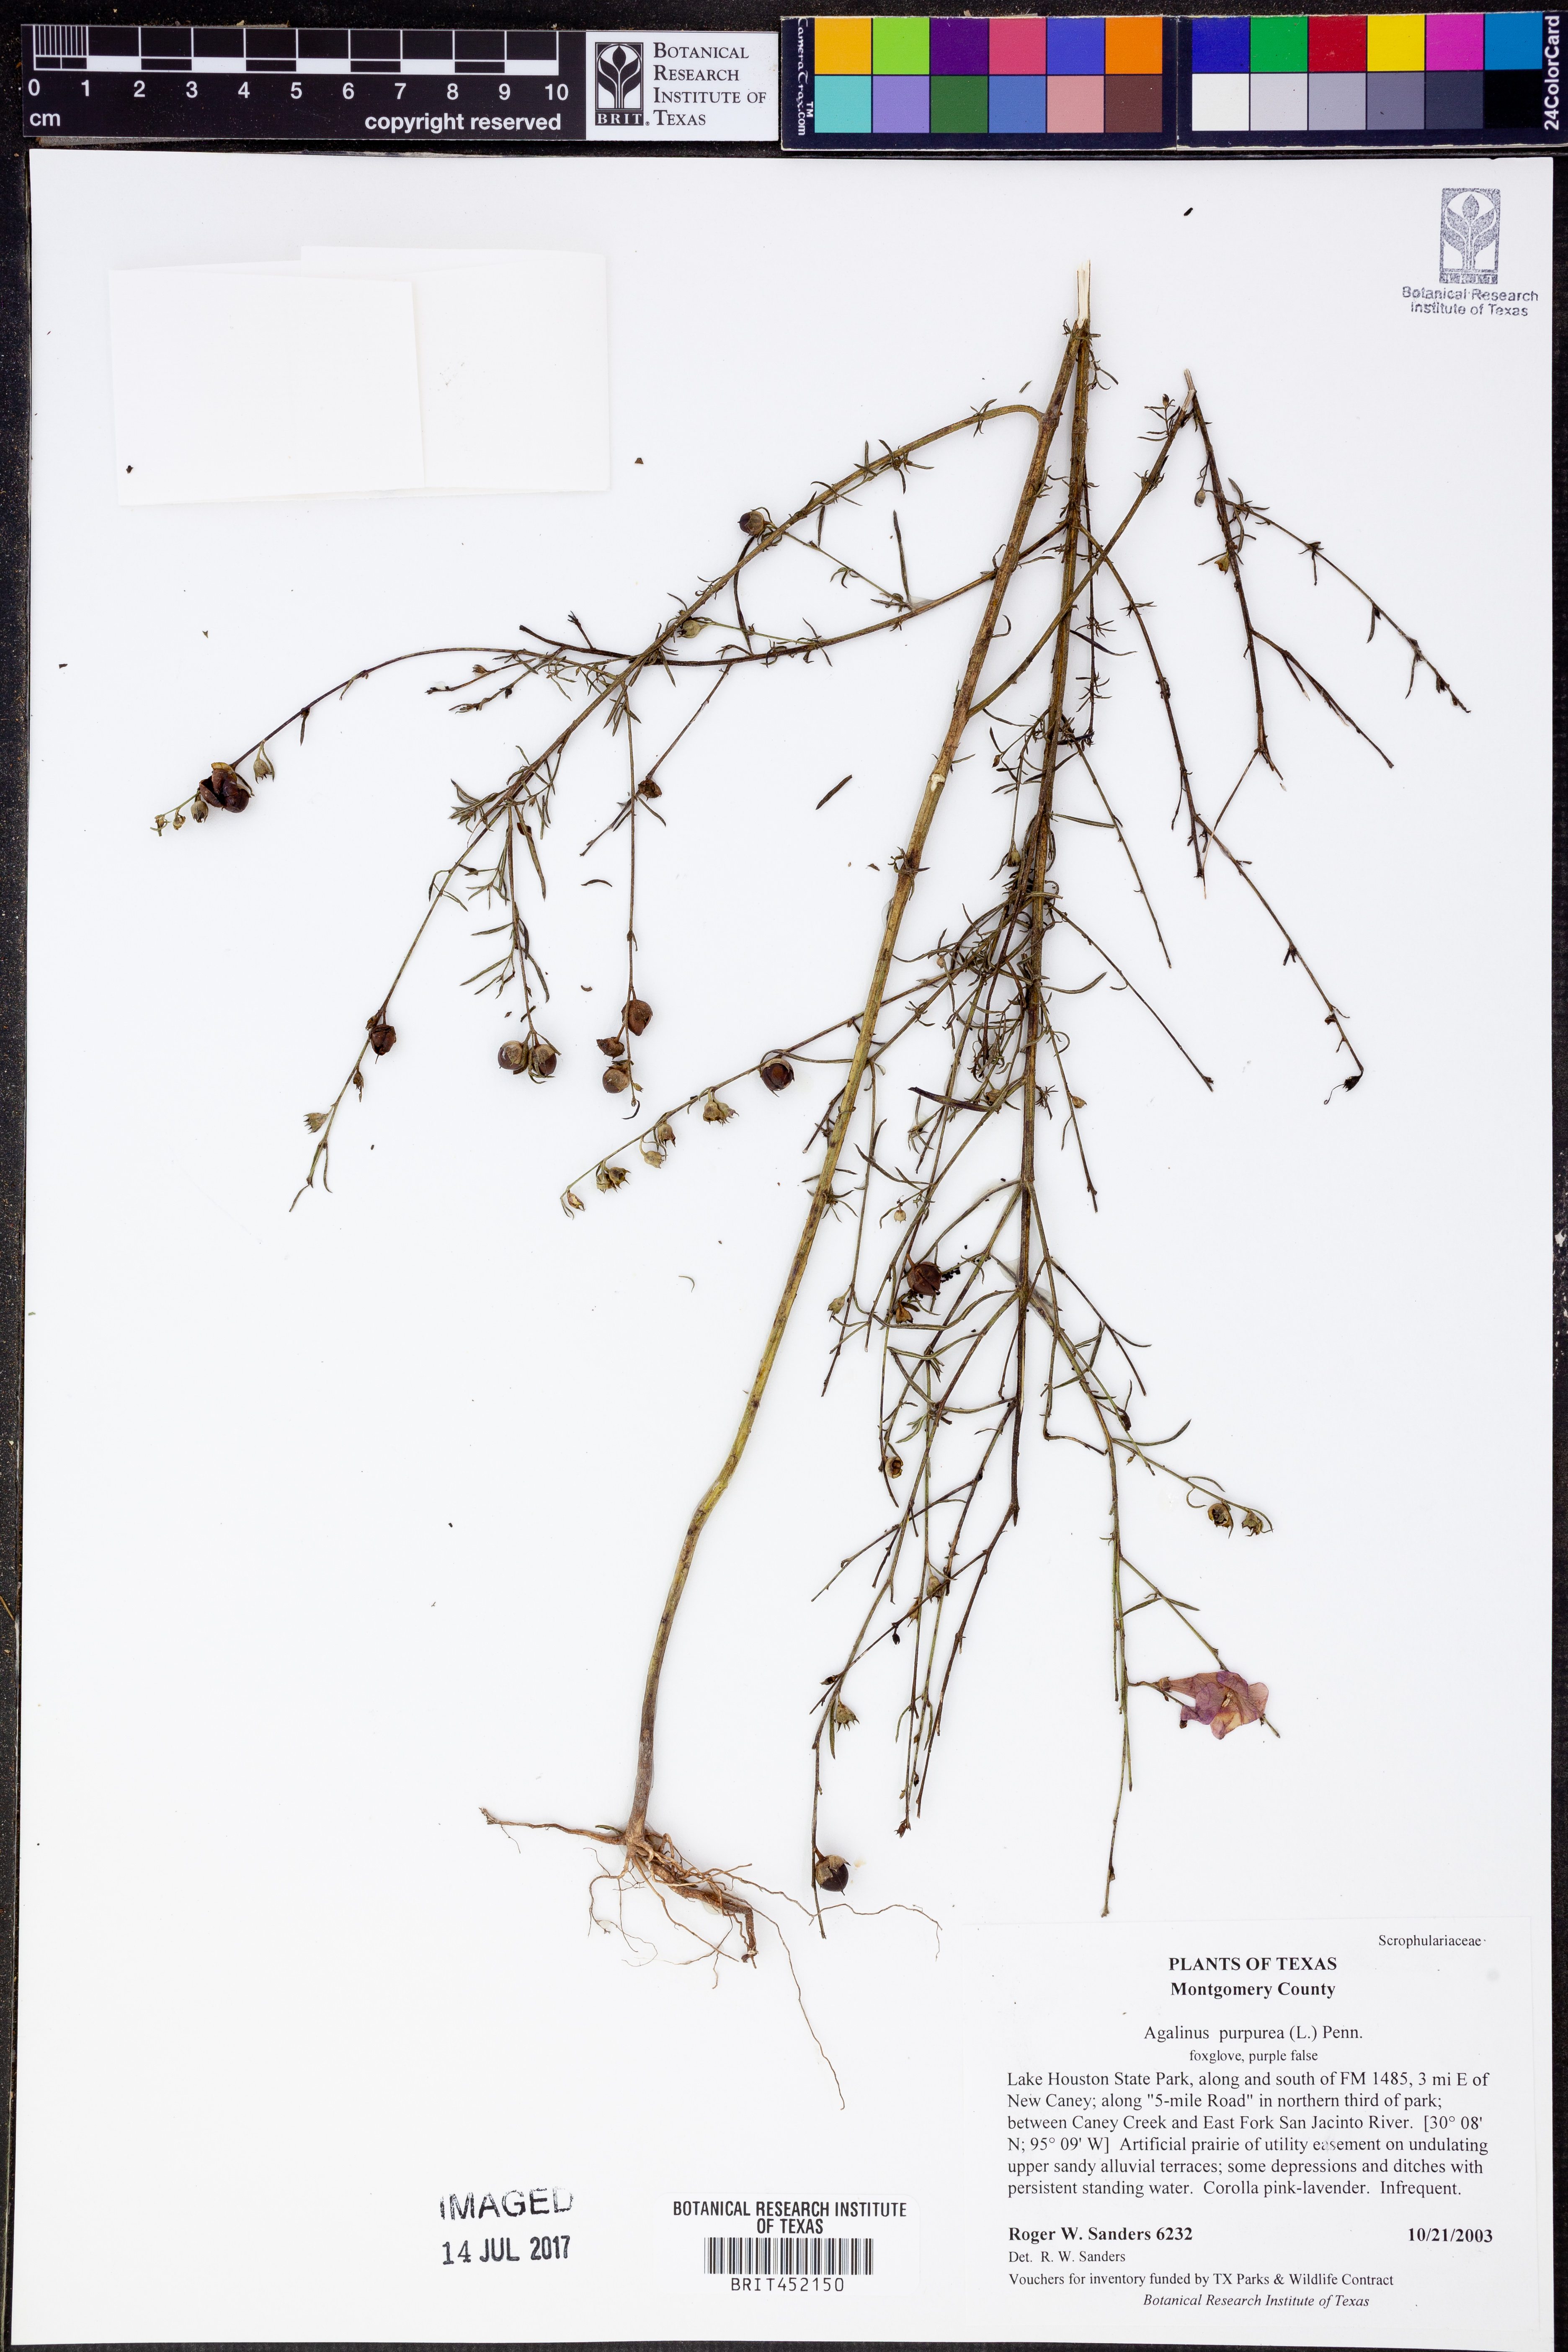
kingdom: Plantae
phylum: Tracheophyta
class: Magnoliopsida
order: Lamiales
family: Orobanchaceae
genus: Agalinis
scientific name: Agalinis purpurea
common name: Purple false foxglove
